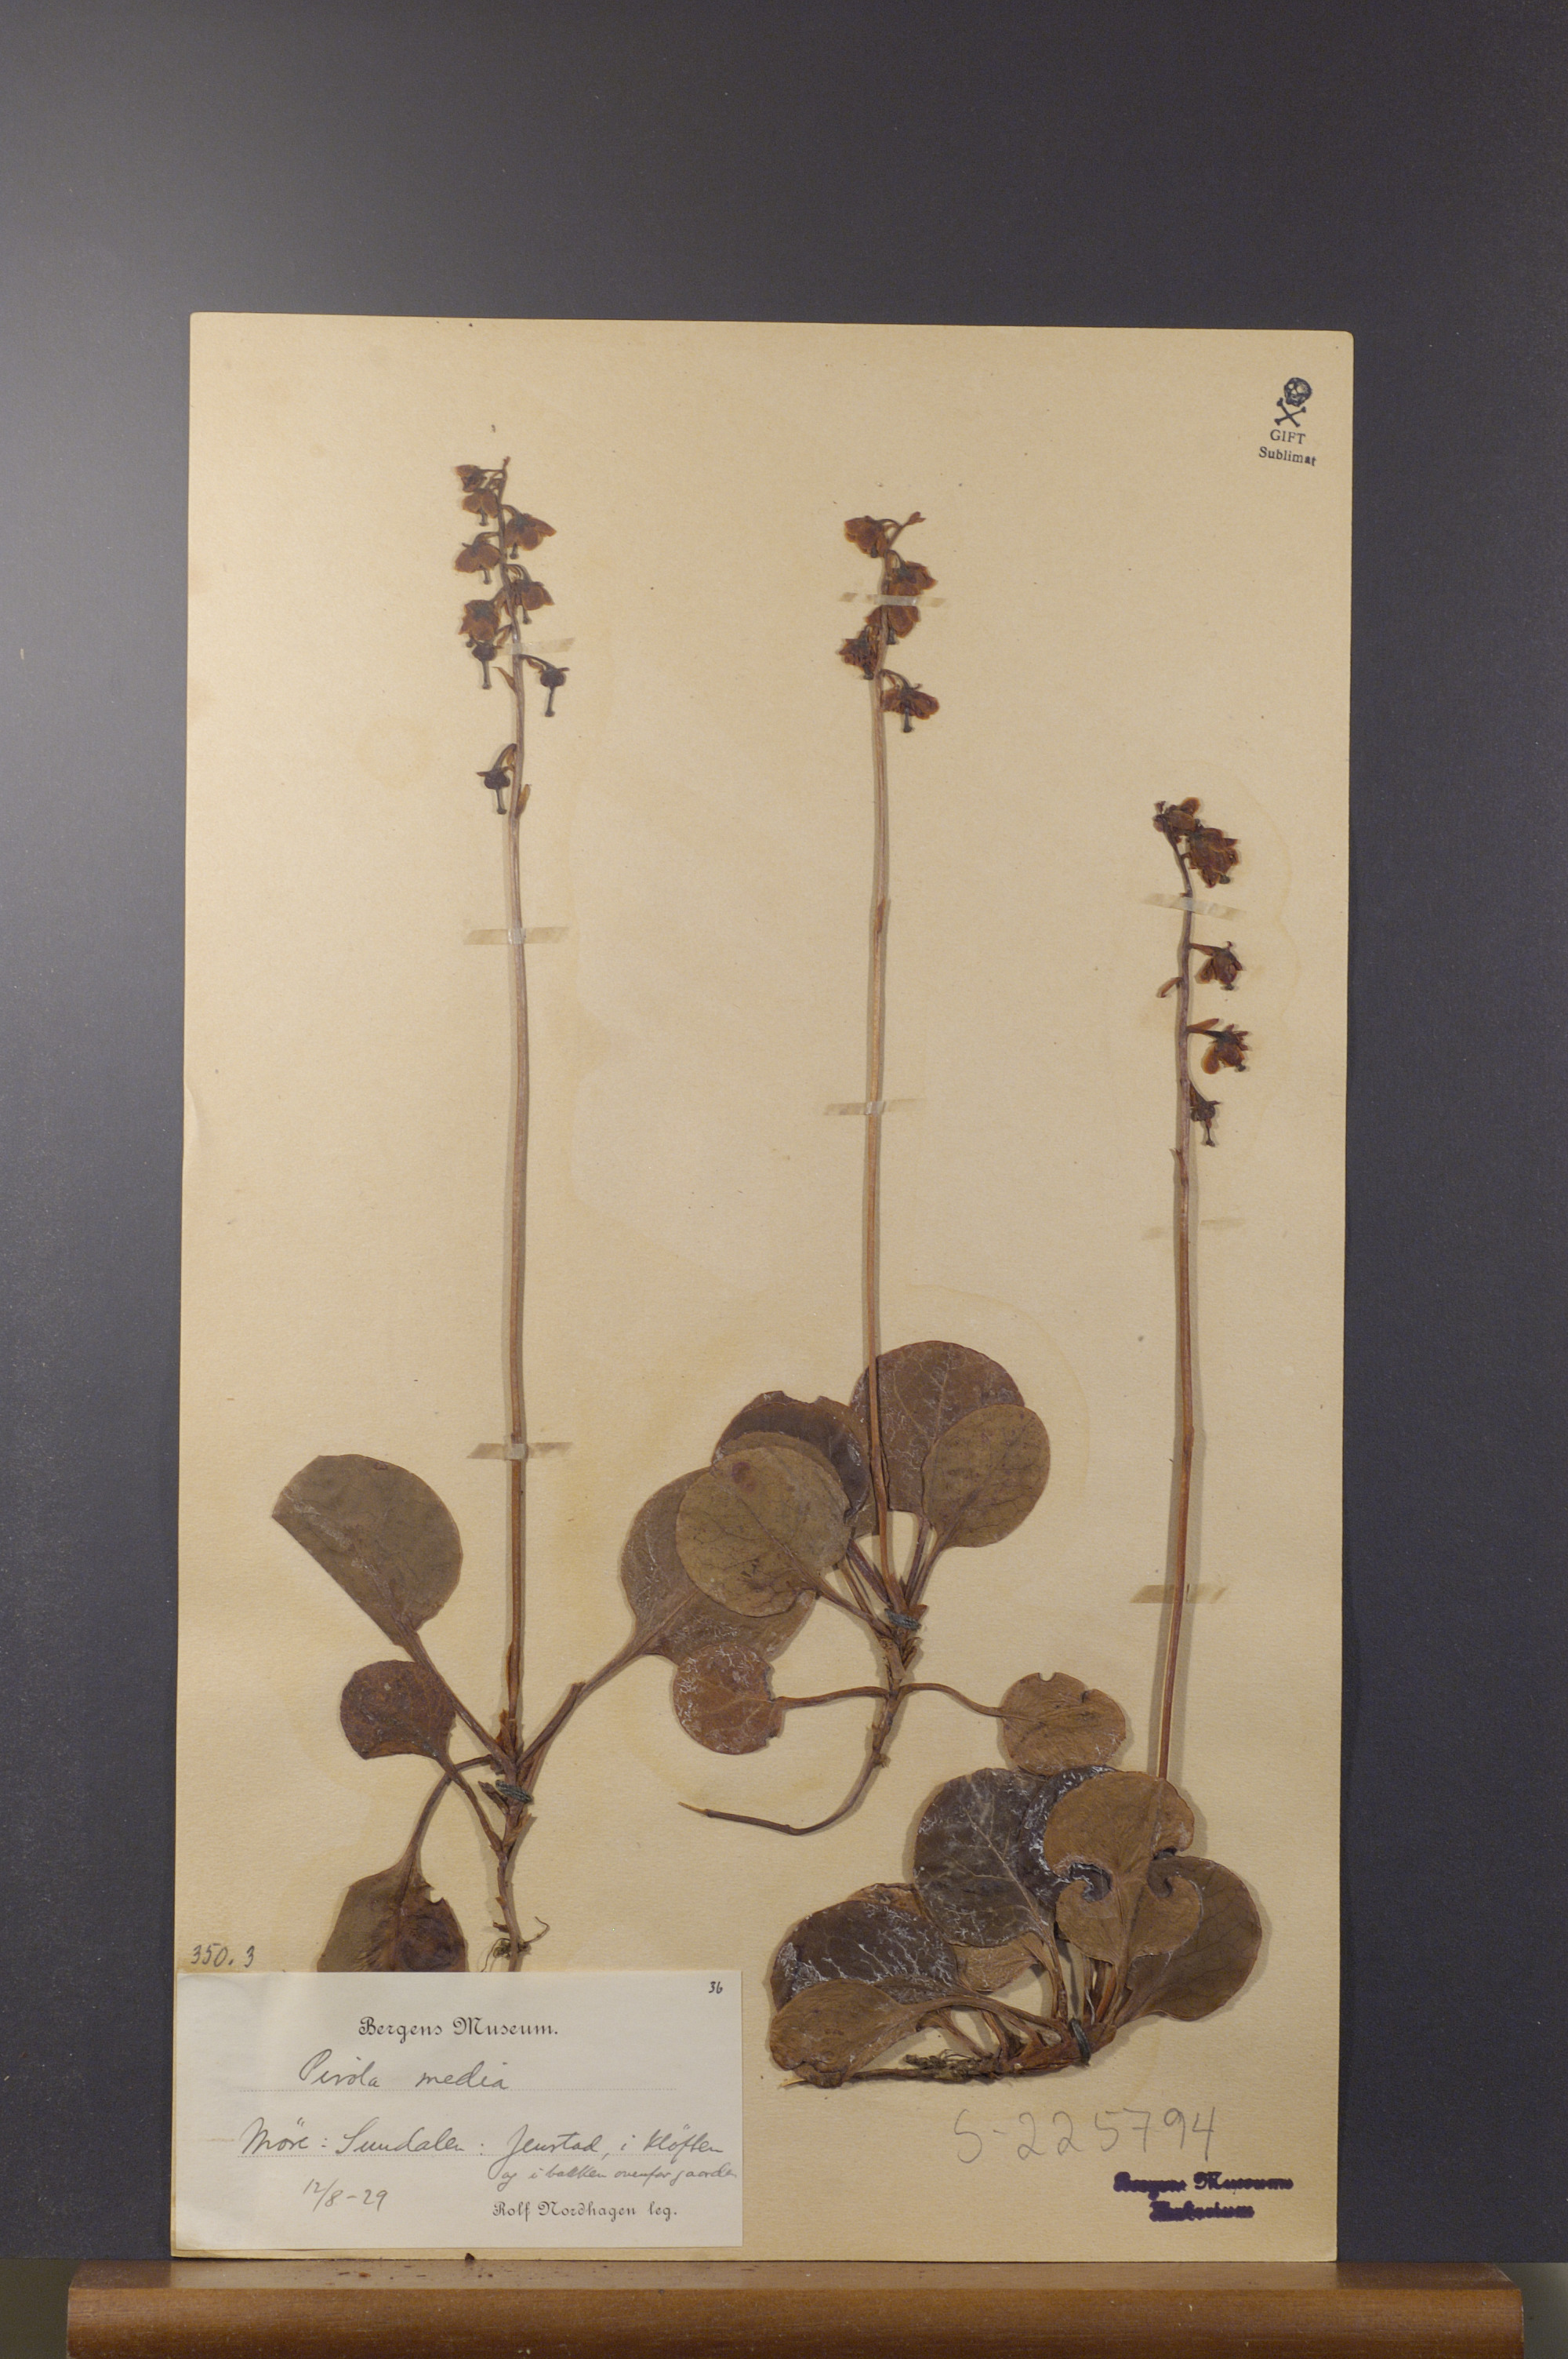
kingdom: Plantae
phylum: Tracheophyta
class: Magnoliopsida
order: Ericales
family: Ericaceae
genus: Pyrola
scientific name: Pyrola media
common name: Intermediate wintergreen
